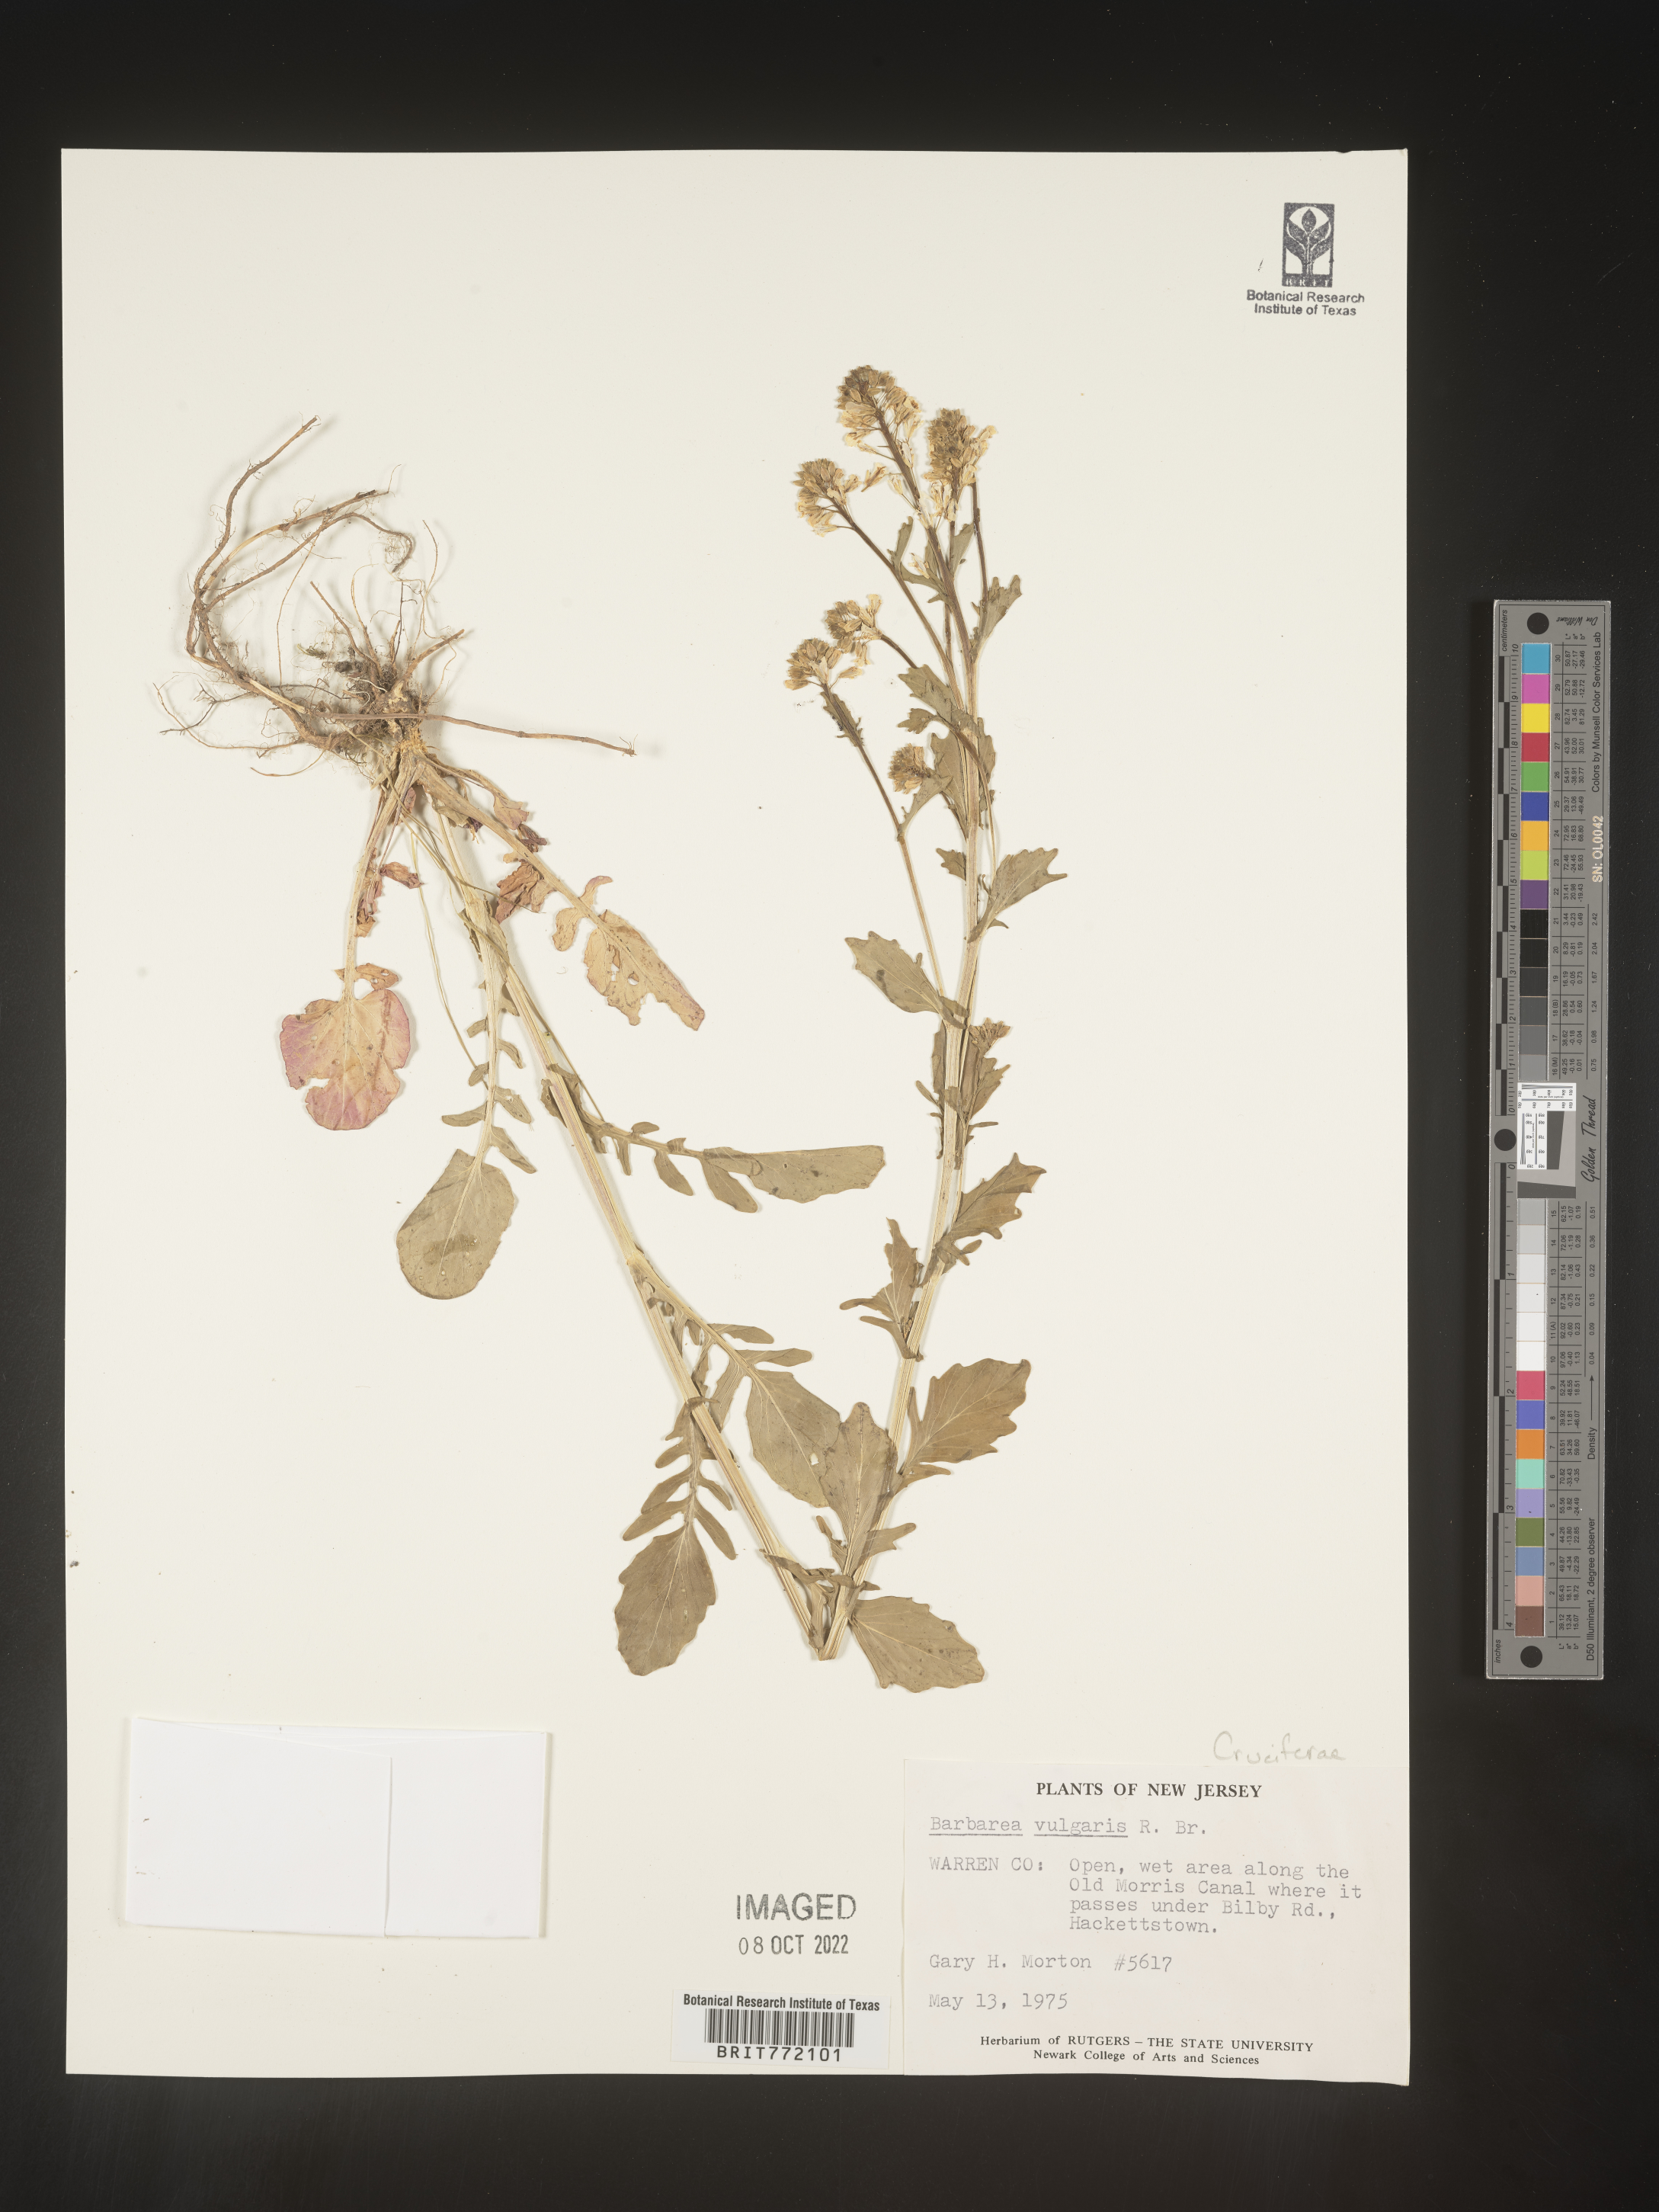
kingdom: Plantae
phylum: Tracheophyta
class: Magnoliopsida
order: Brassicales
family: Brassicaceae
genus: Barbarea
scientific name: Barbarea vulgaris
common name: Cressy-greens
